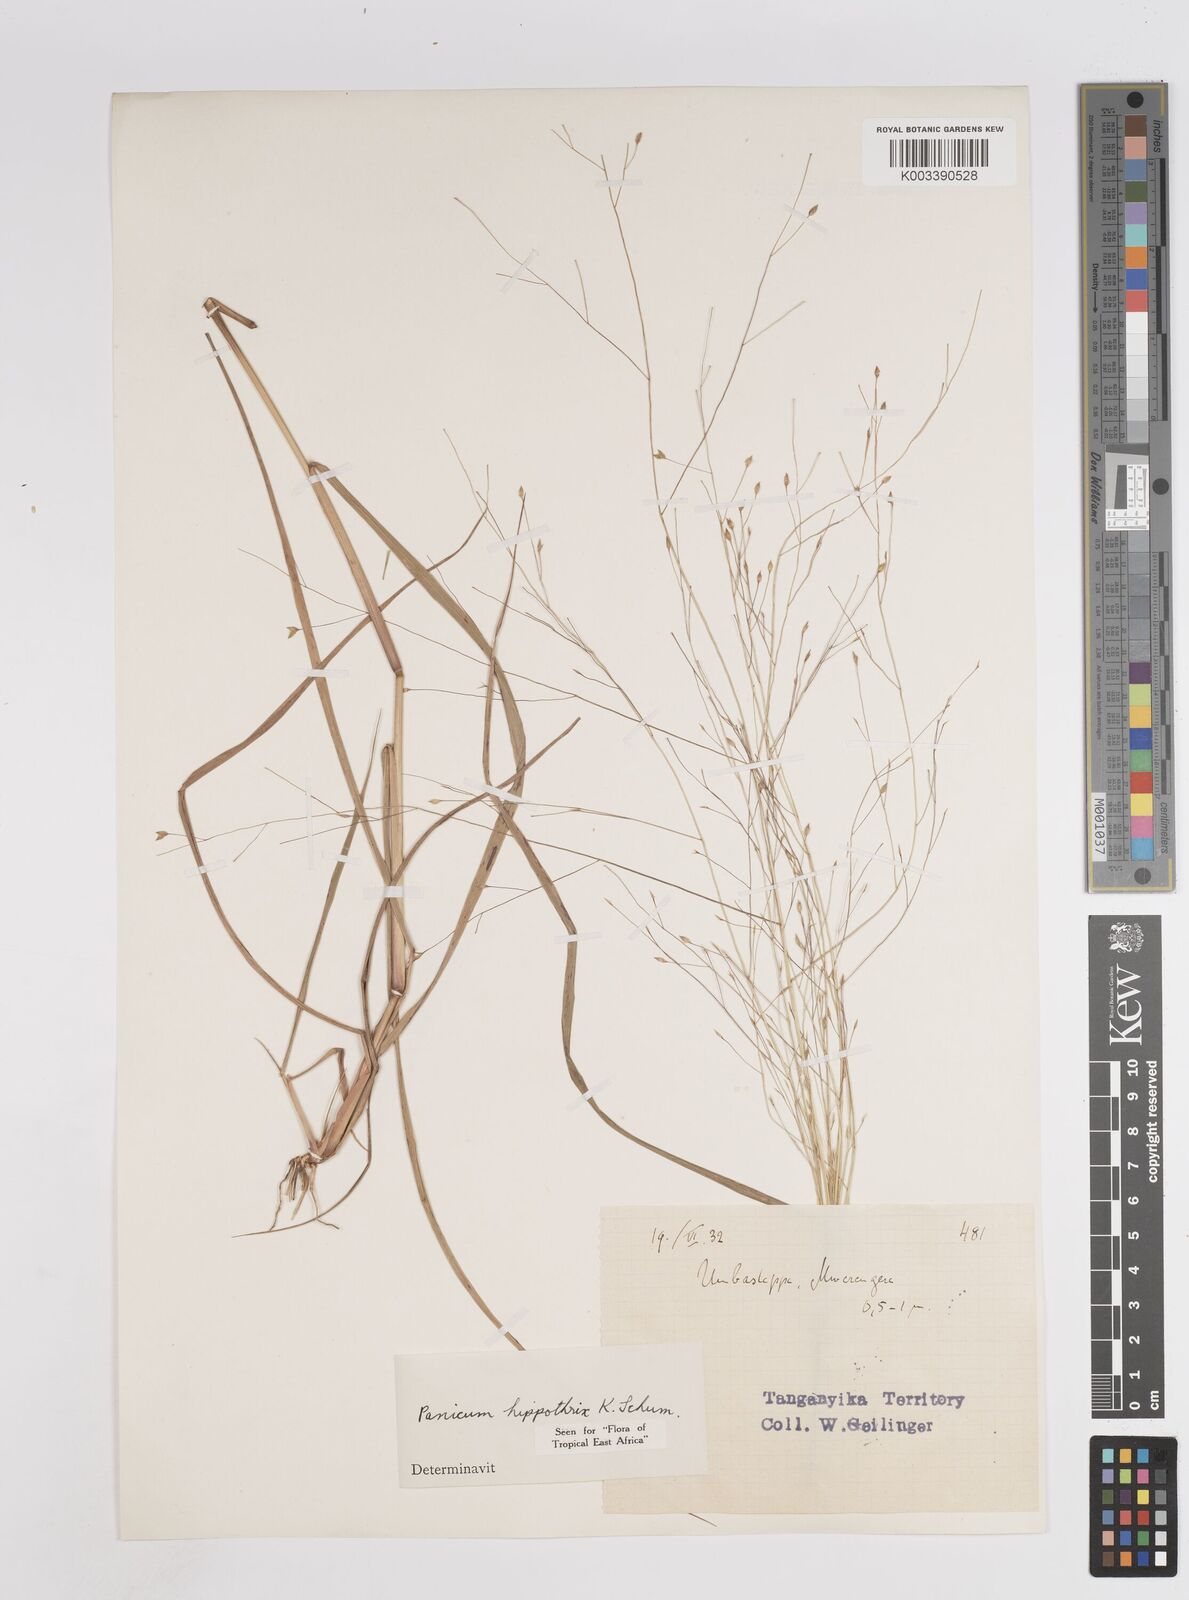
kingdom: Plantae
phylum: Tracheophyta
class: Liliopsida
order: Poales
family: Poaceae
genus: Panicum
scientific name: Panicum hippothrix
